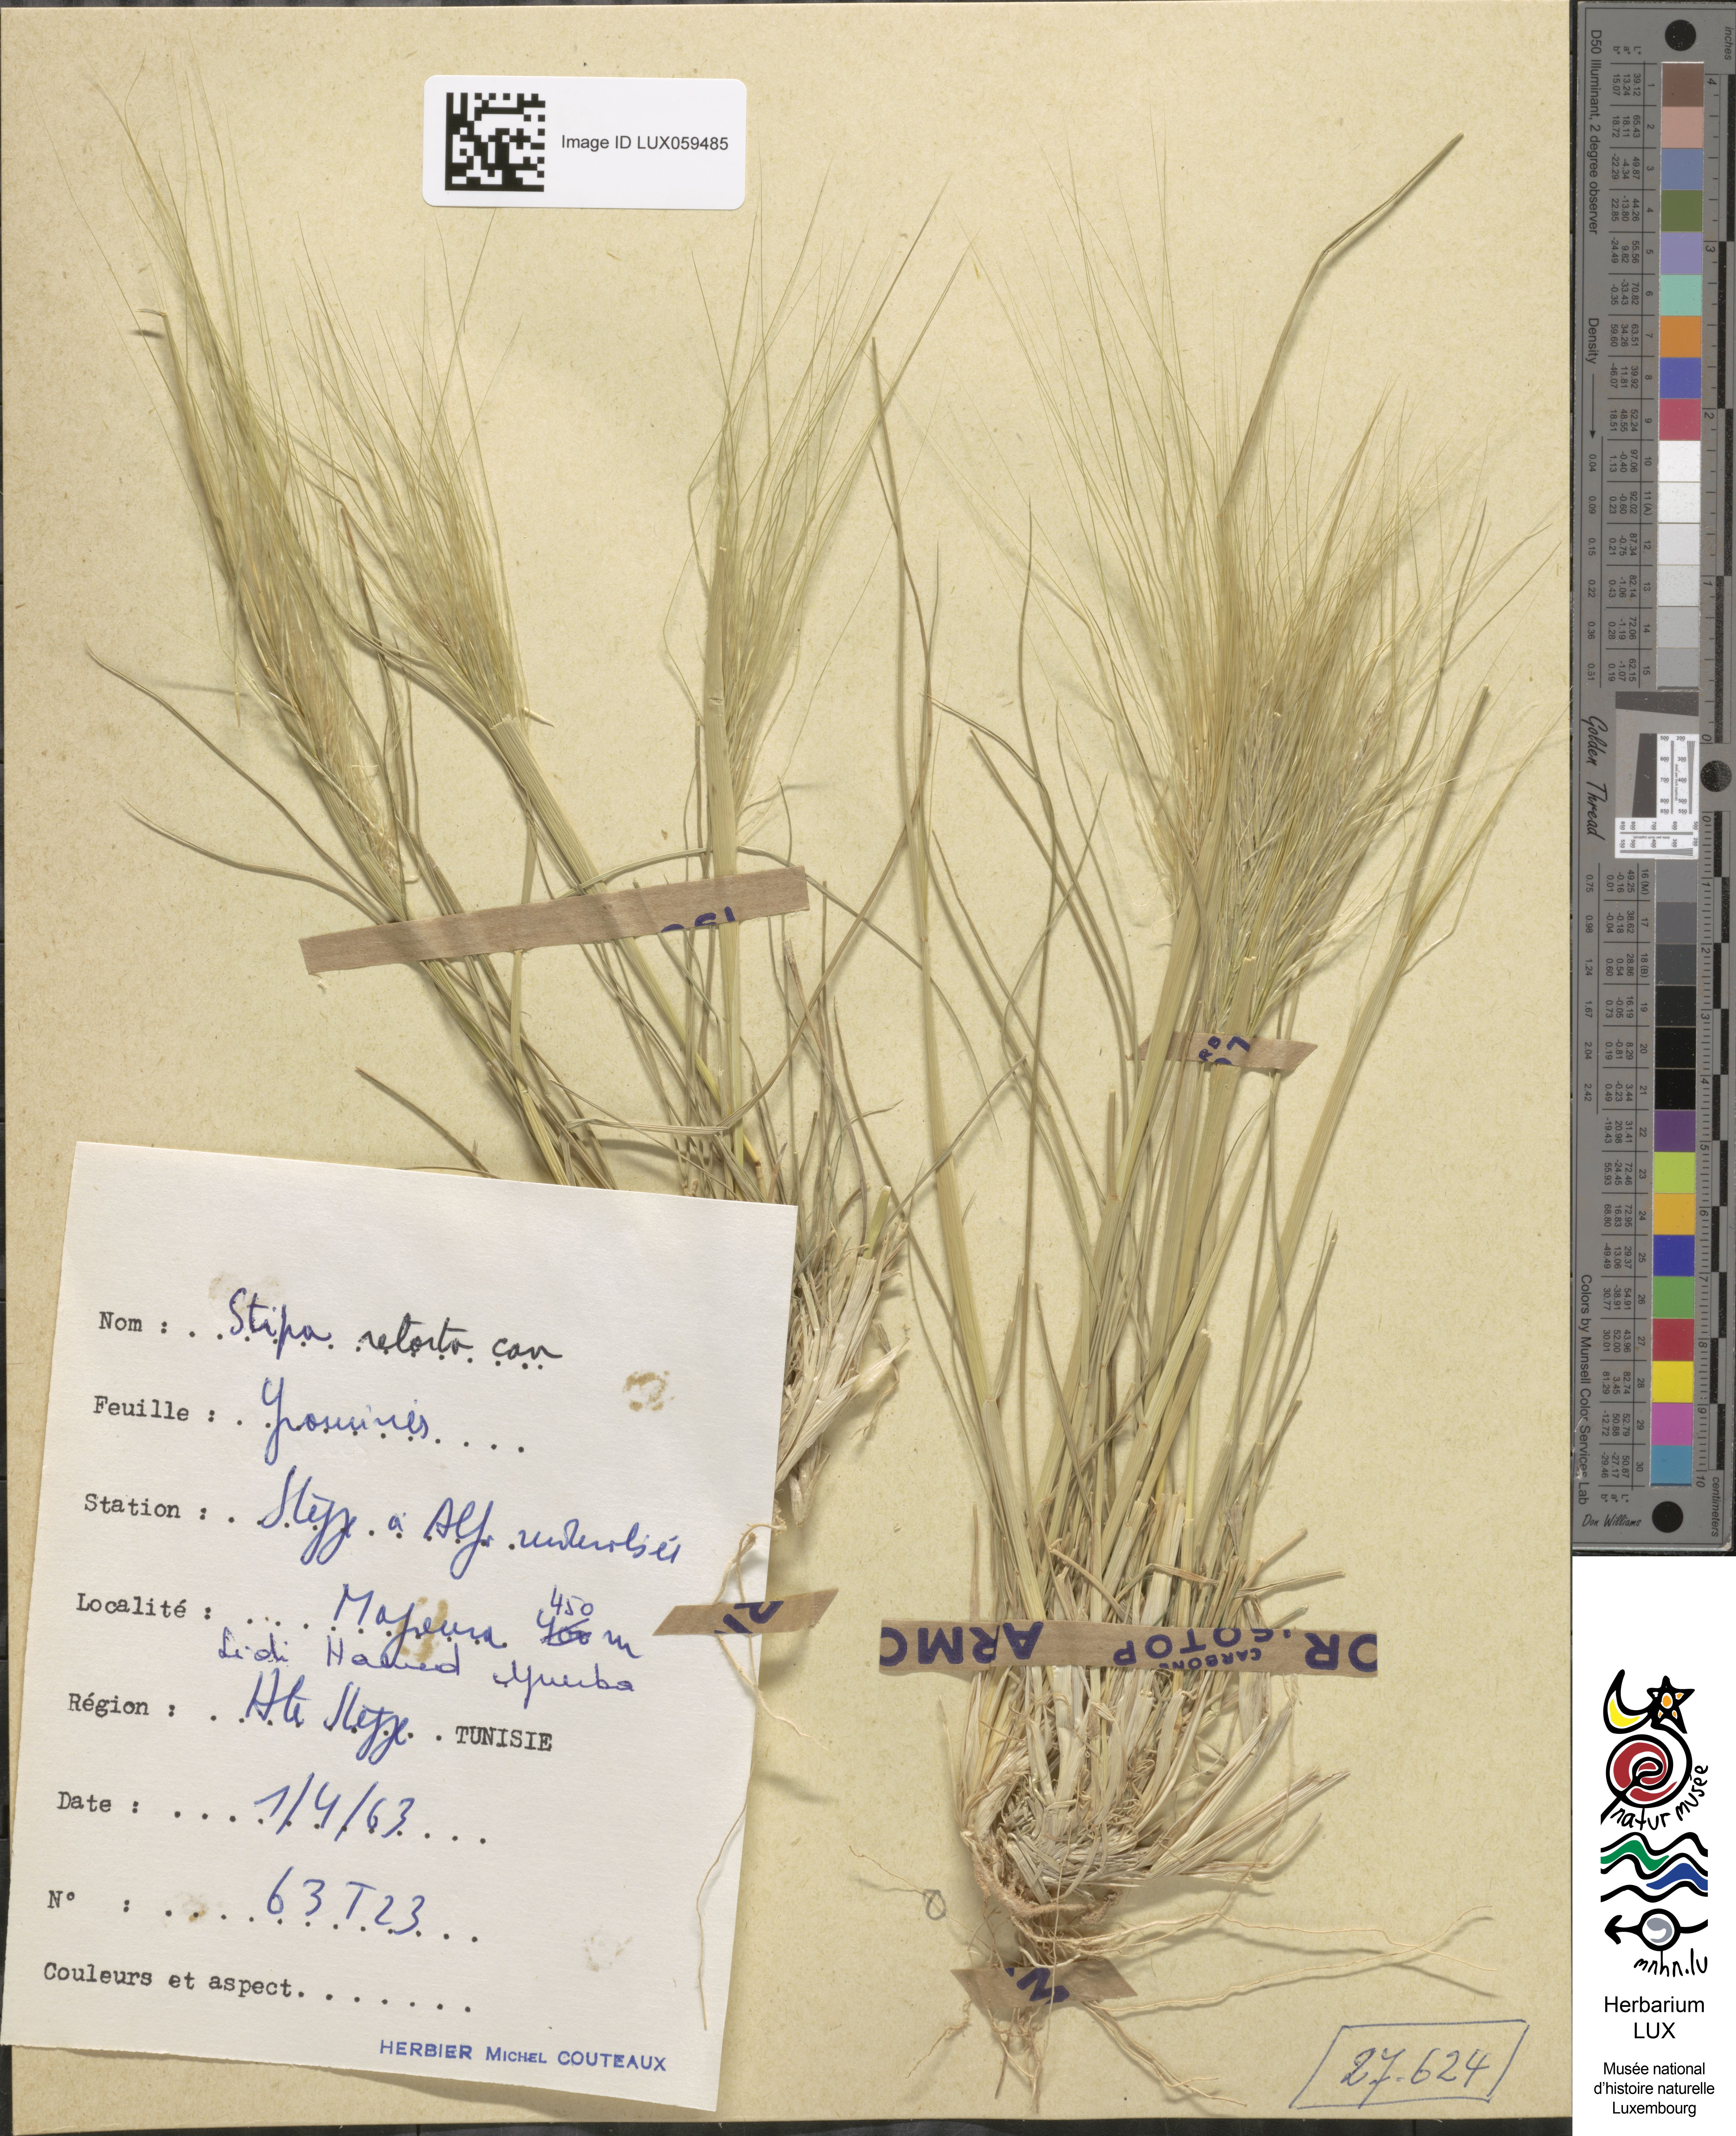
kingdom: Plantae
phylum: Tracheophyta
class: Liliopsida
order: Poales
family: Poaceae
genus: Stipellula
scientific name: Stipellula capensis
